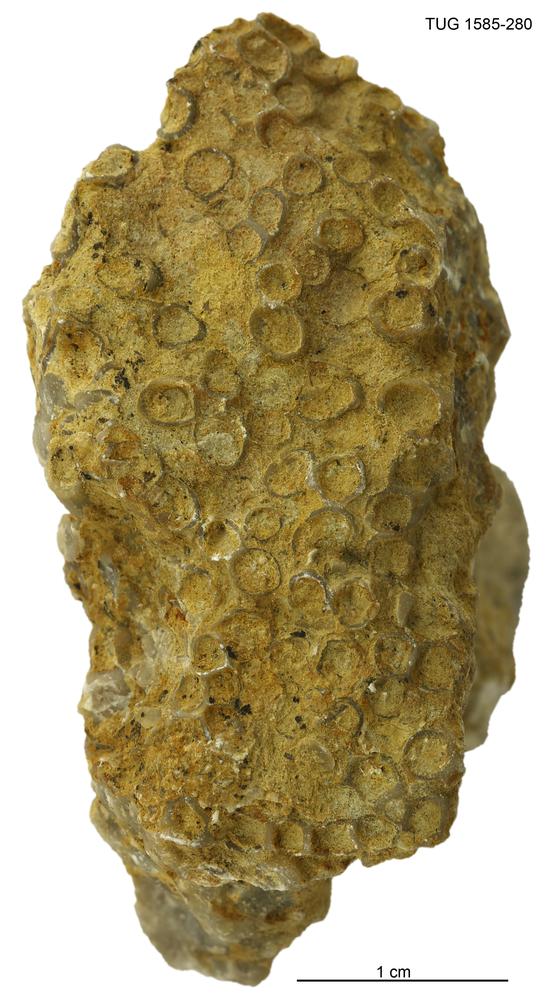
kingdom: Animalia
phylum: Cnidaria
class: Anthozoa
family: Auloporidae
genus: Eofletcheria
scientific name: Eofletcheria orvikui
